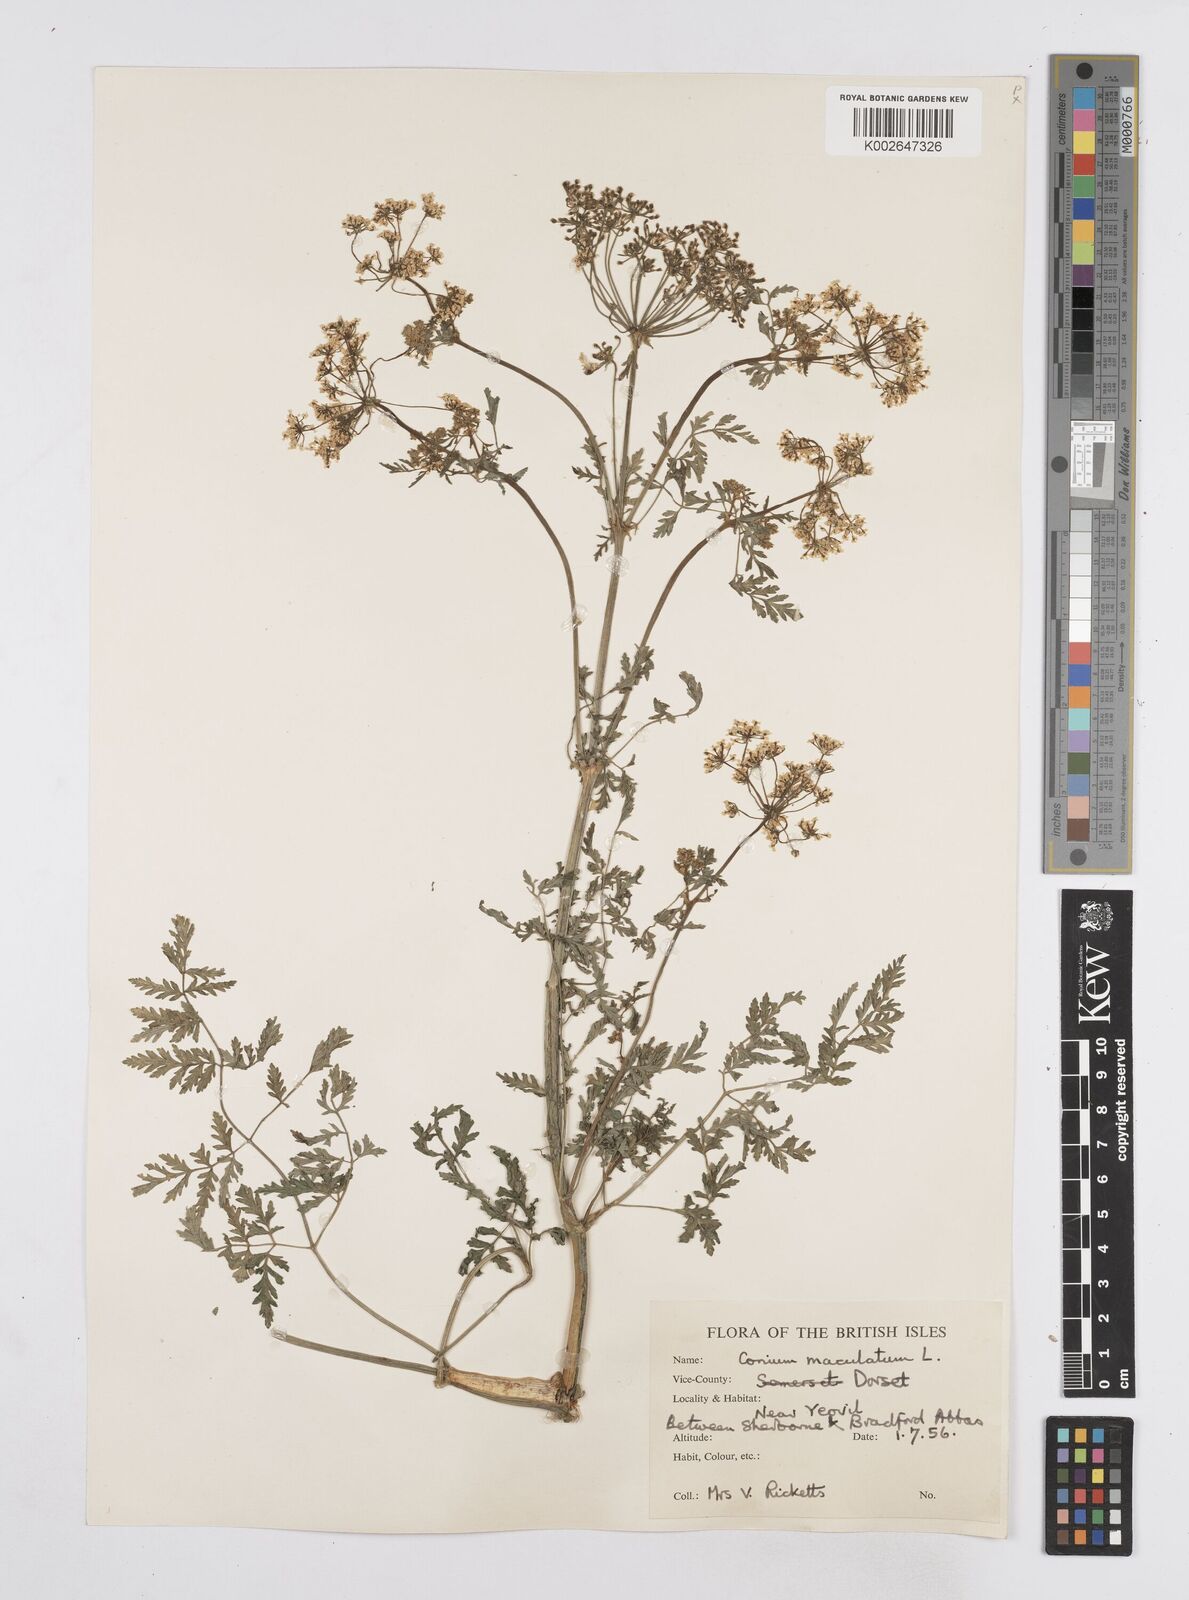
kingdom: Plantae
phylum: Tracheophyta
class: Magnoliopsida
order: Apiales
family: Apiaceae
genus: Conium
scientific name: Conium maculatum
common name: Hemlock
